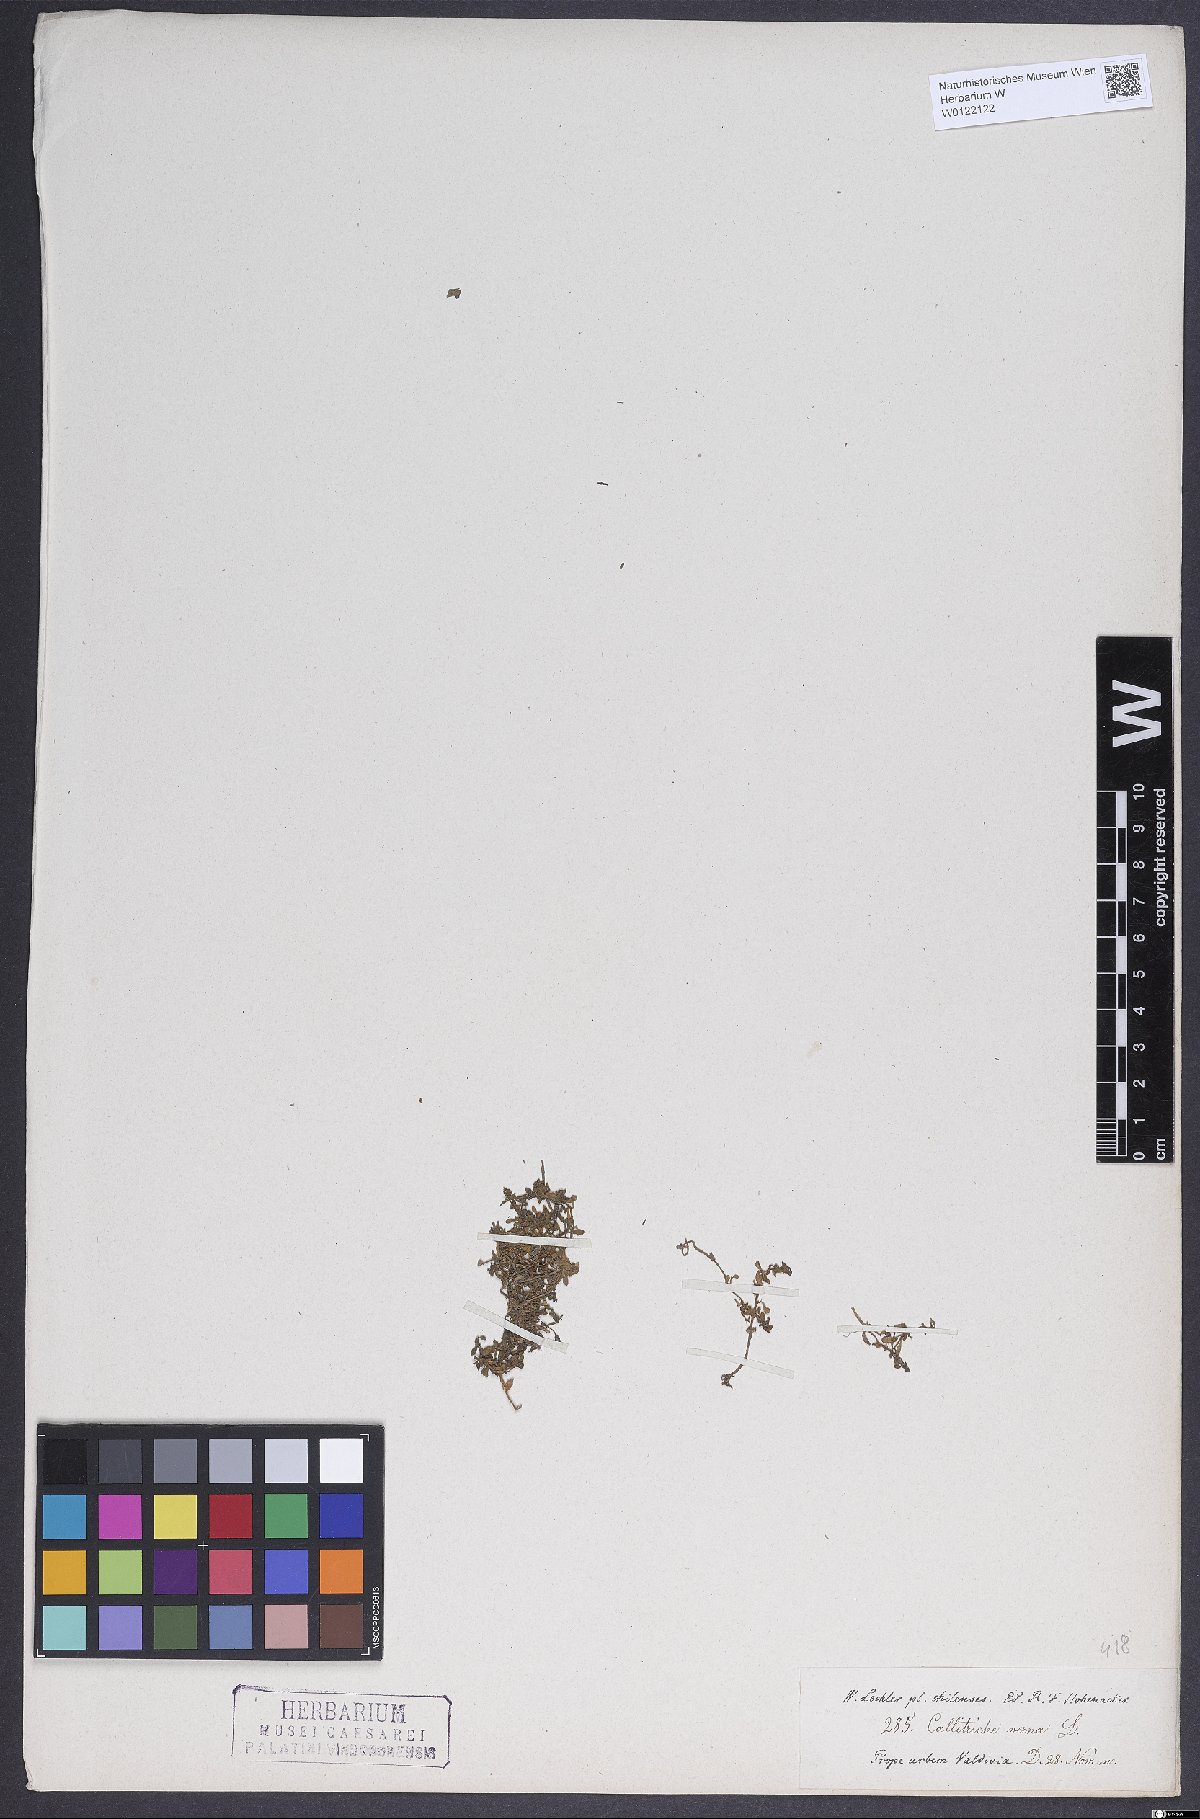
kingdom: Plantae
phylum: Tracheophyta
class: Magnoliopsida
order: Lamiales
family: Plantaginaceae
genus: Callitriche
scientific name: Callitriche obtusangula
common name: Blunt-fruited water-starwort
